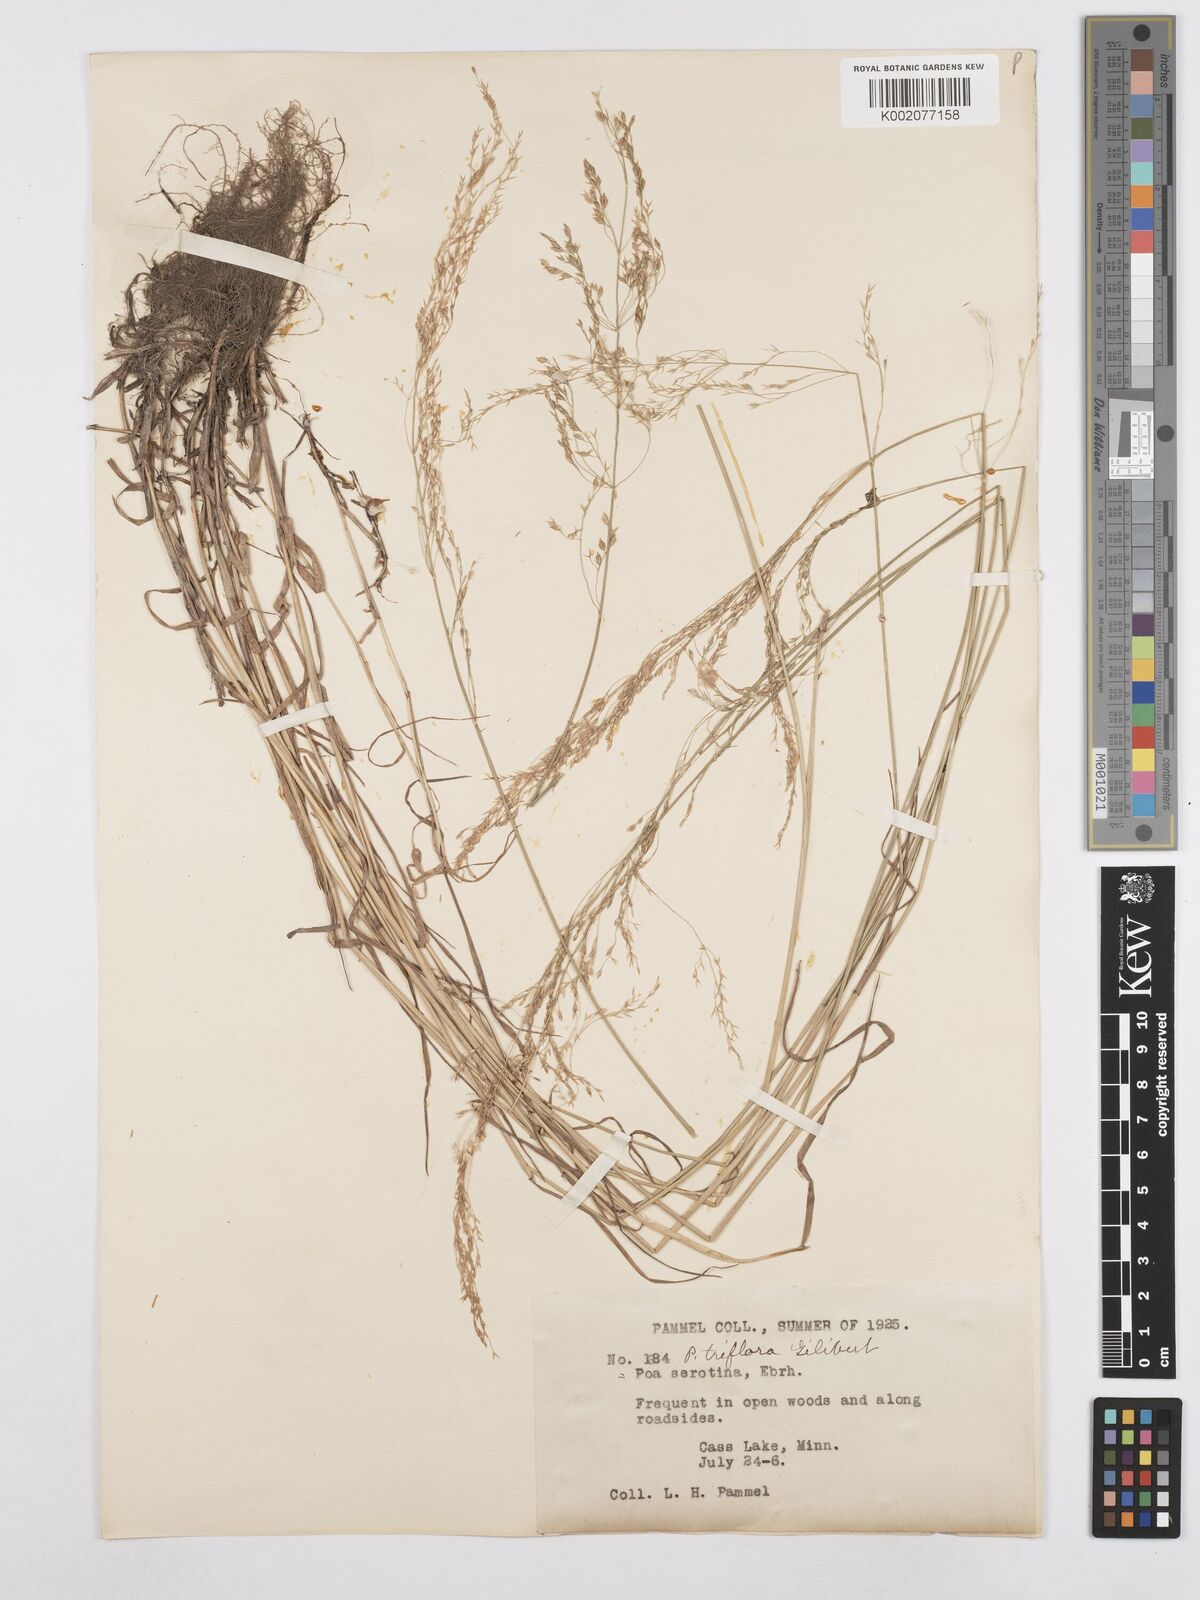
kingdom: Plantae
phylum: Tracheophyta
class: Liliopsida
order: Poales
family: Poaceae
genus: Poa
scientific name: Poa palustris
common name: Swamp meadow-grass
